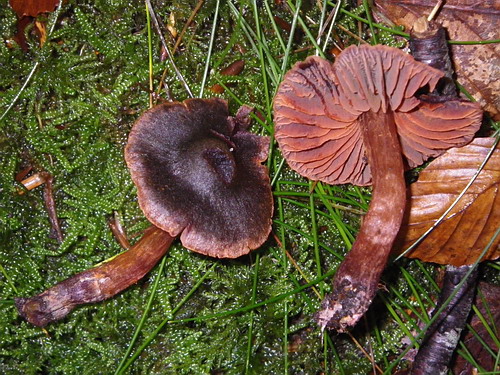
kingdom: Fungi
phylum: Basidiomycota
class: Agaricomycetes
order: Agaricales
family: Cortinariaceae
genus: Cortinarius
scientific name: Cortinarius anthracinus
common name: purpursort slørhat
